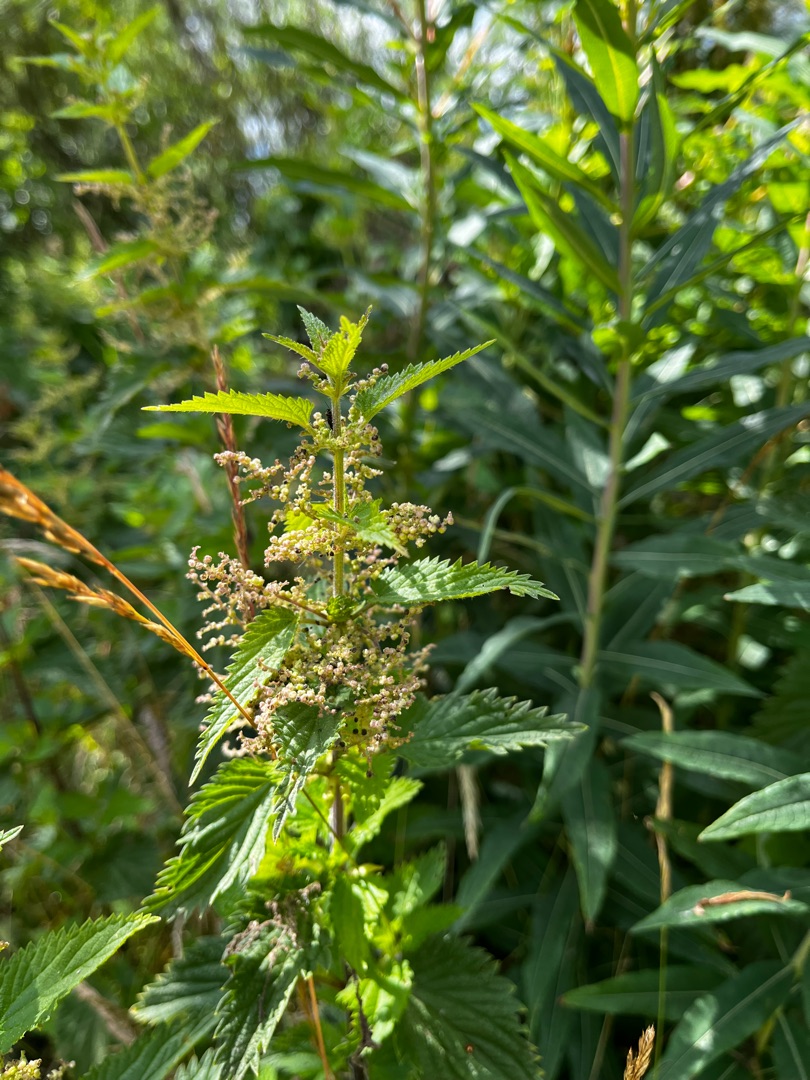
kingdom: Plantae
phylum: Tracheophyta
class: Magnoliopsida
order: Rosales
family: Urticaceae
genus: Urtica
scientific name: Urtica dioica
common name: Stor nælde
